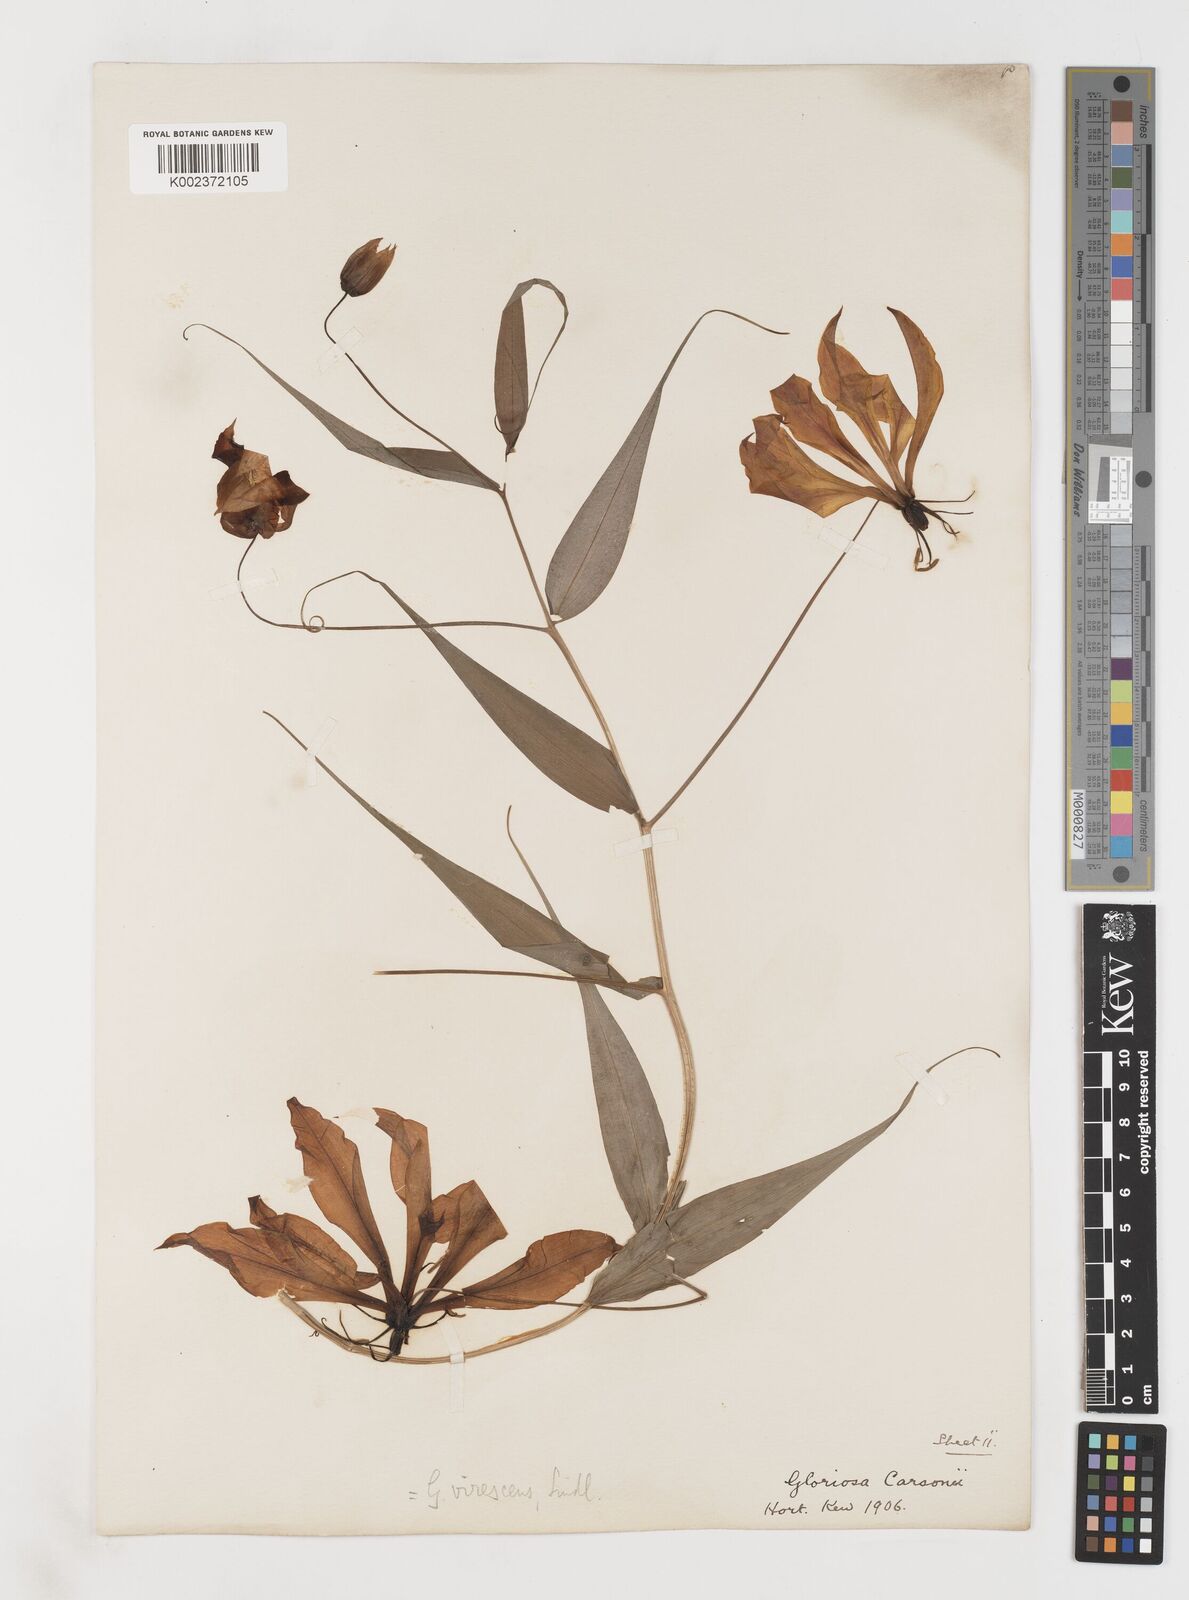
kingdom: Plantae
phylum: Tracheophyta
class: Liliopsida
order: Liliales
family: Colchicaceae
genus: Gloriosa
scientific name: Gloriosa simplex
